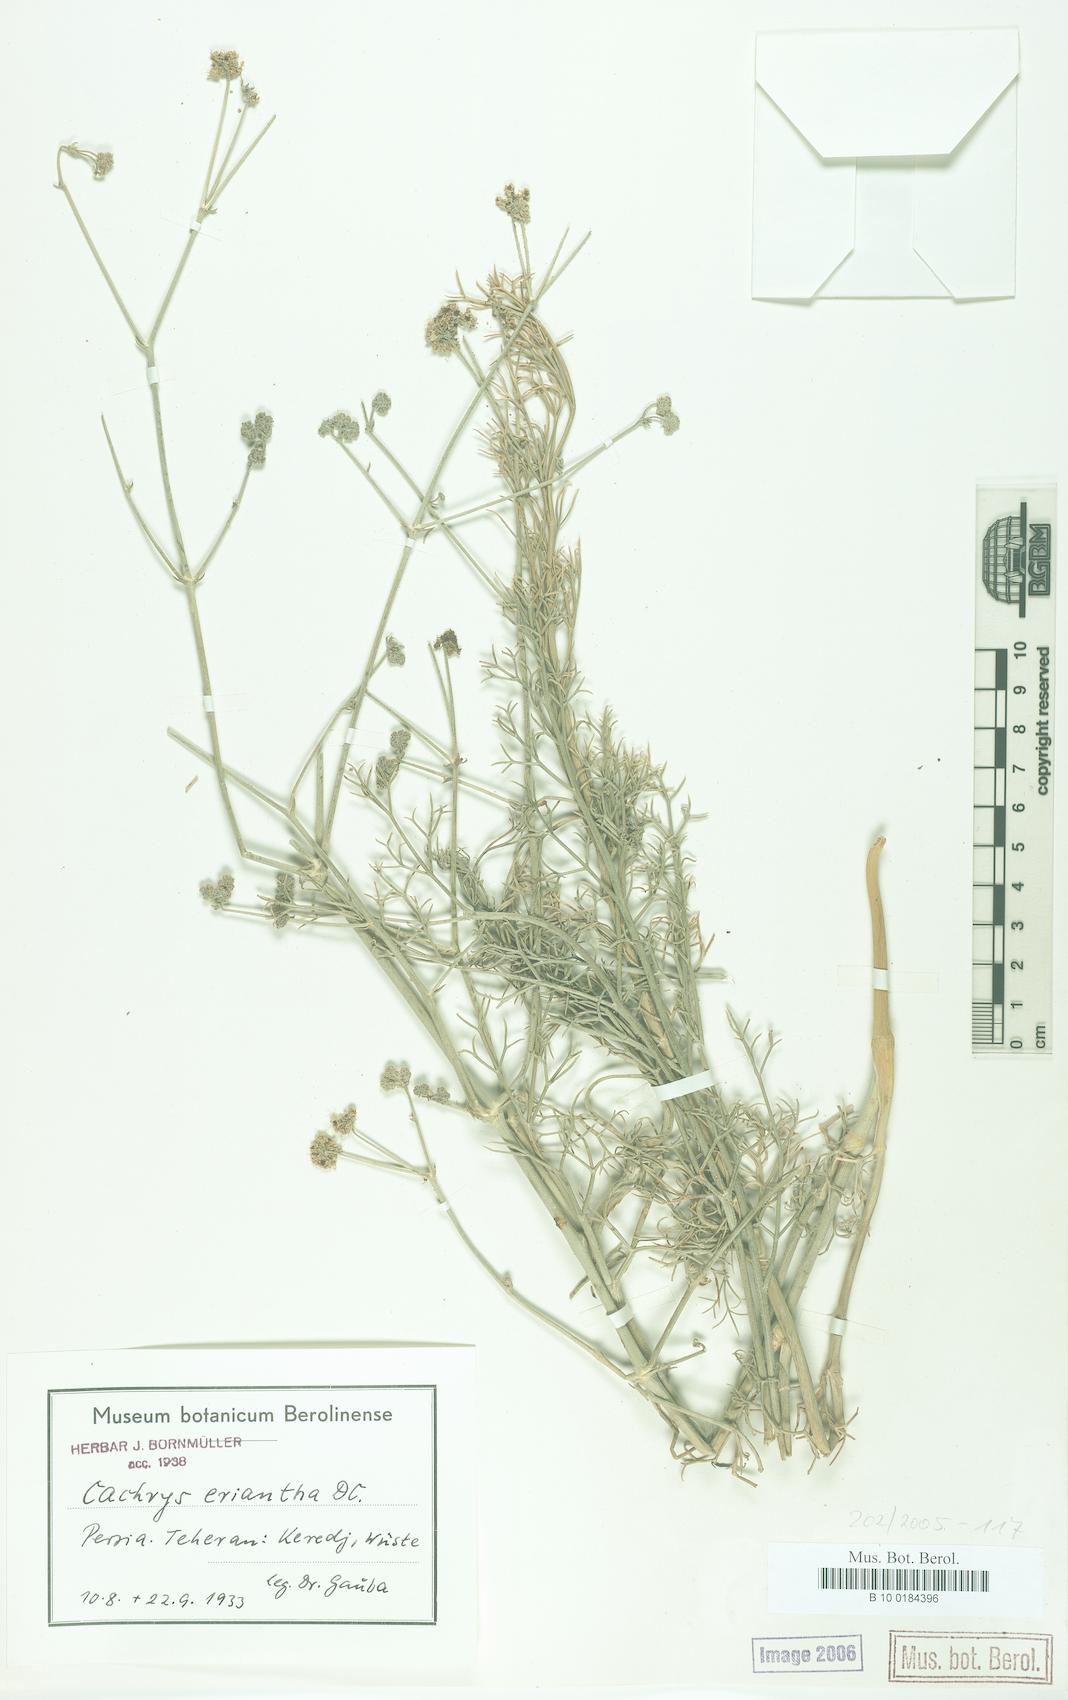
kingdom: Plantae
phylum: Tracheophyta
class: Magnoliopsida
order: Apiales
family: Apiaceae
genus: Prangos
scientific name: Prangos eriantha
